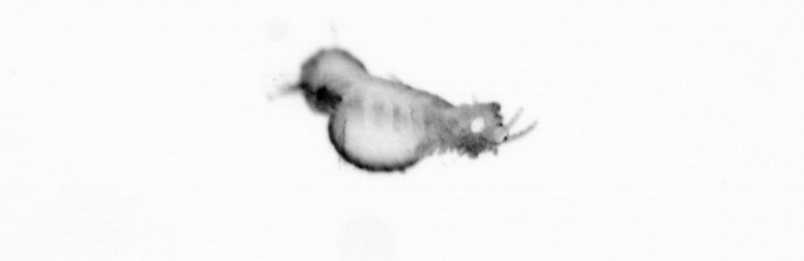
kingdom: Animalia
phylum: Annelida
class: Polychaeta
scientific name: Polychaeta
